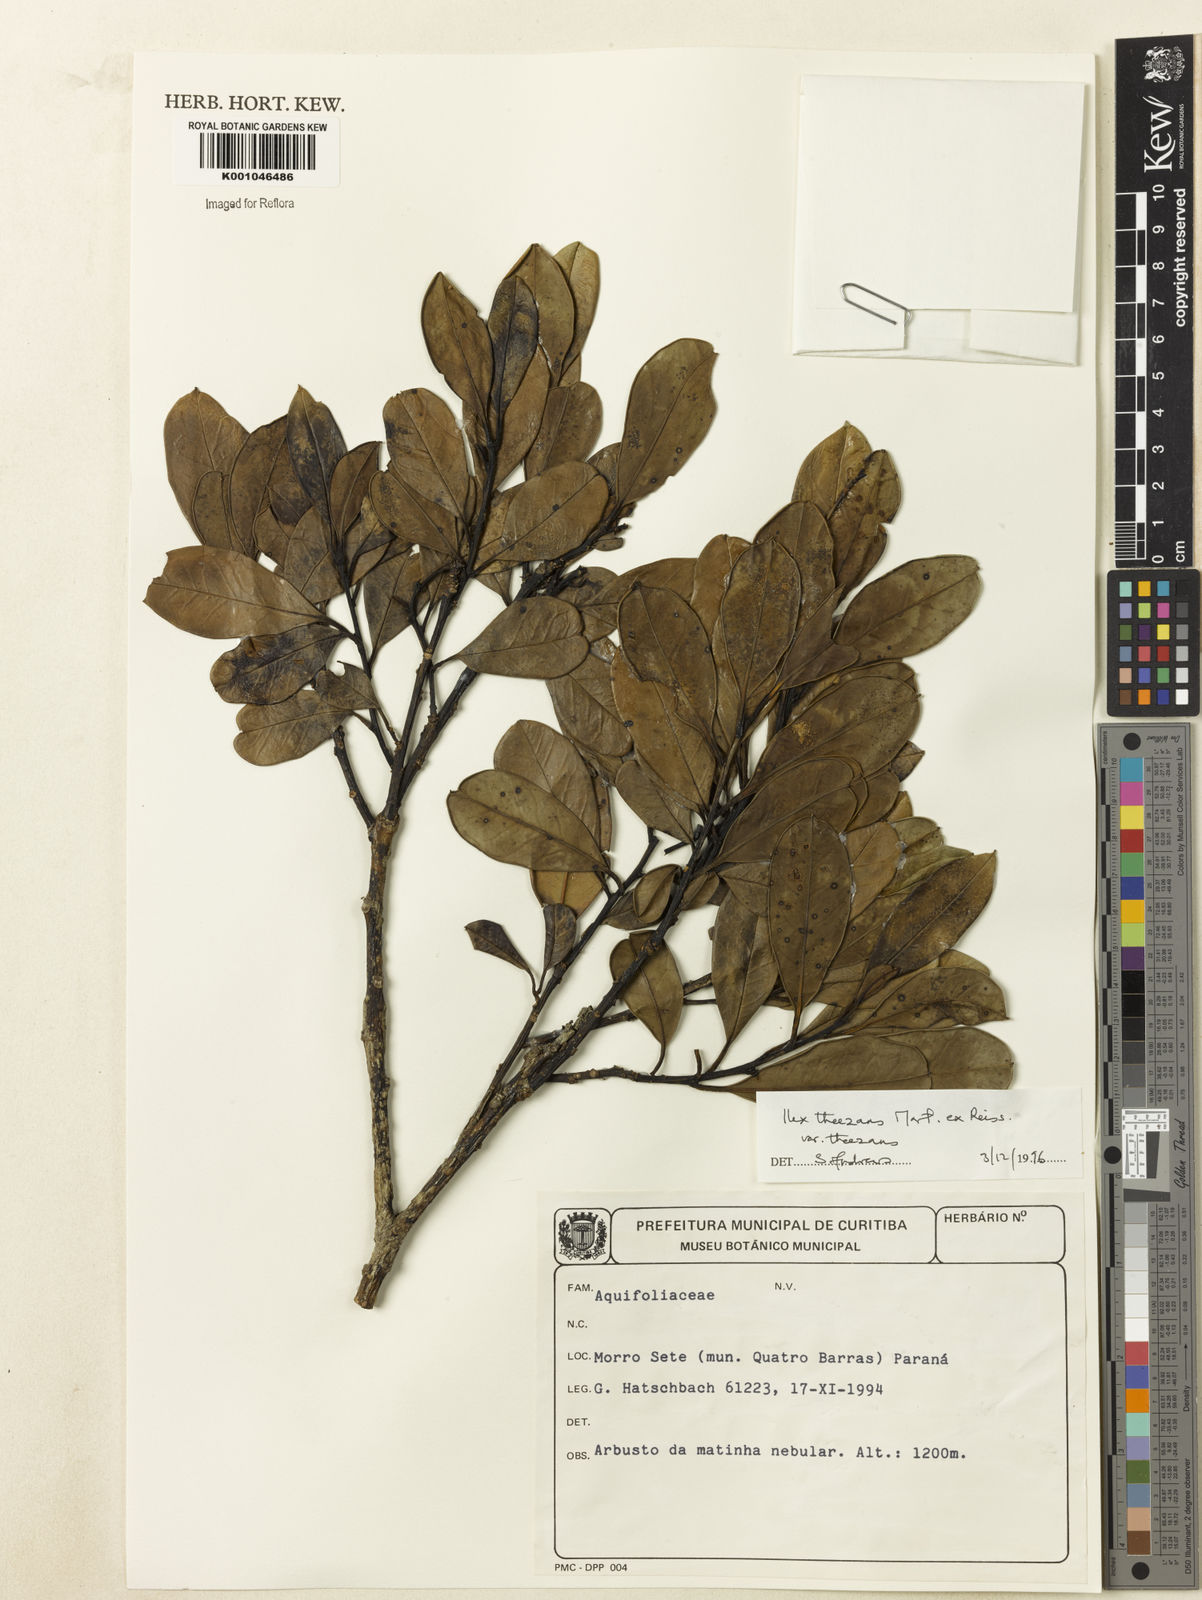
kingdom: Plantae
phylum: Tracheophyta
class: Magnoliopsida
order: Aquifoliales
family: Aquifoliaceae
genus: Ilex
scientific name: Ilex paraguariensis
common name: Paraguay tea
